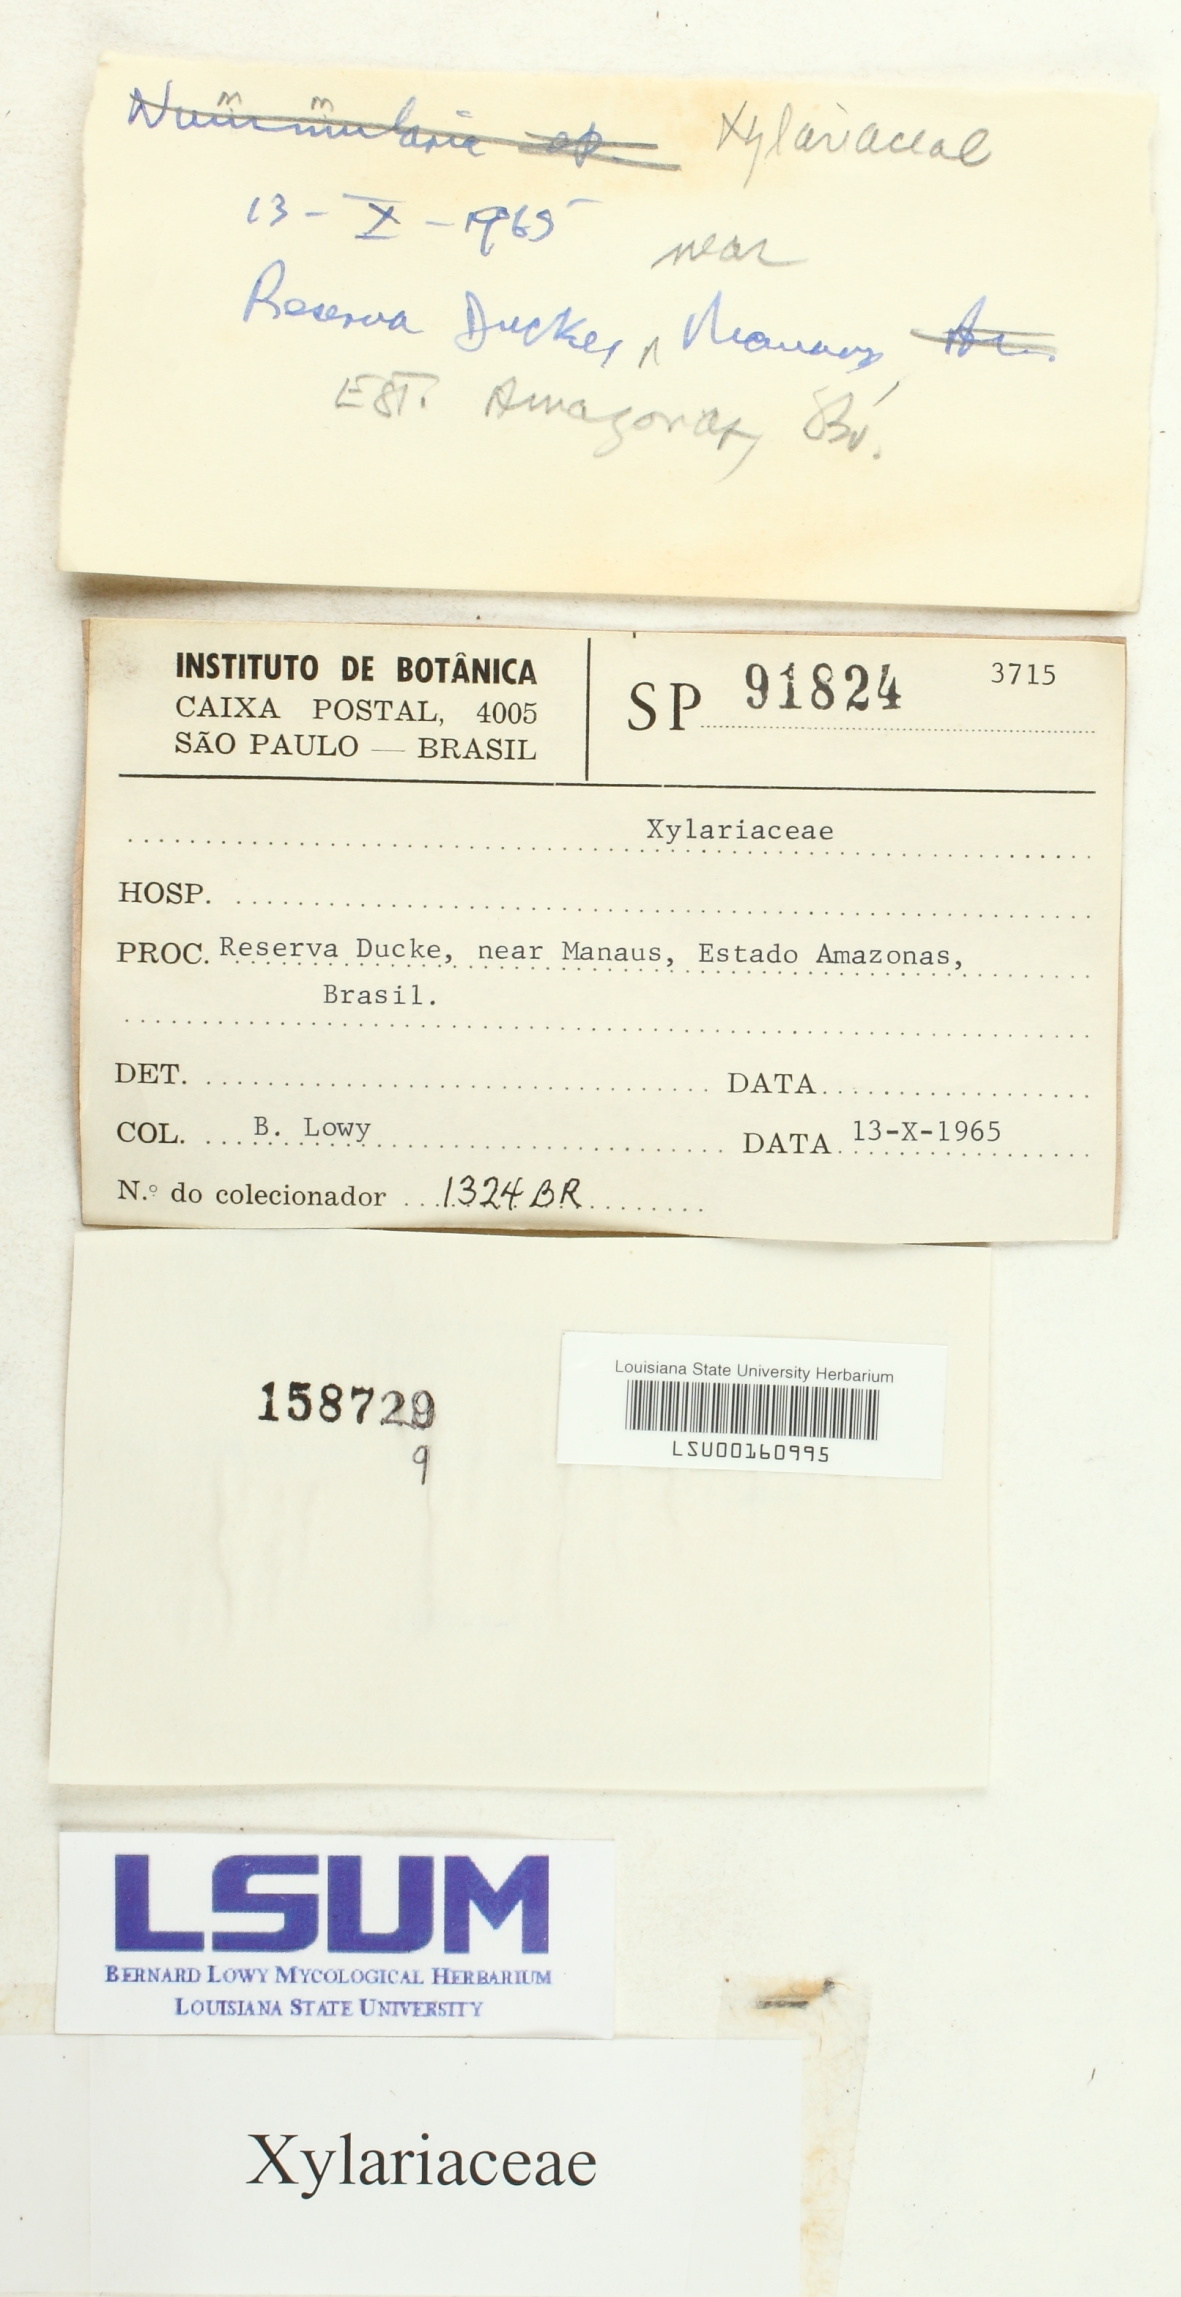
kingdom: Fungi
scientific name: Fungi
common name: Fungi
